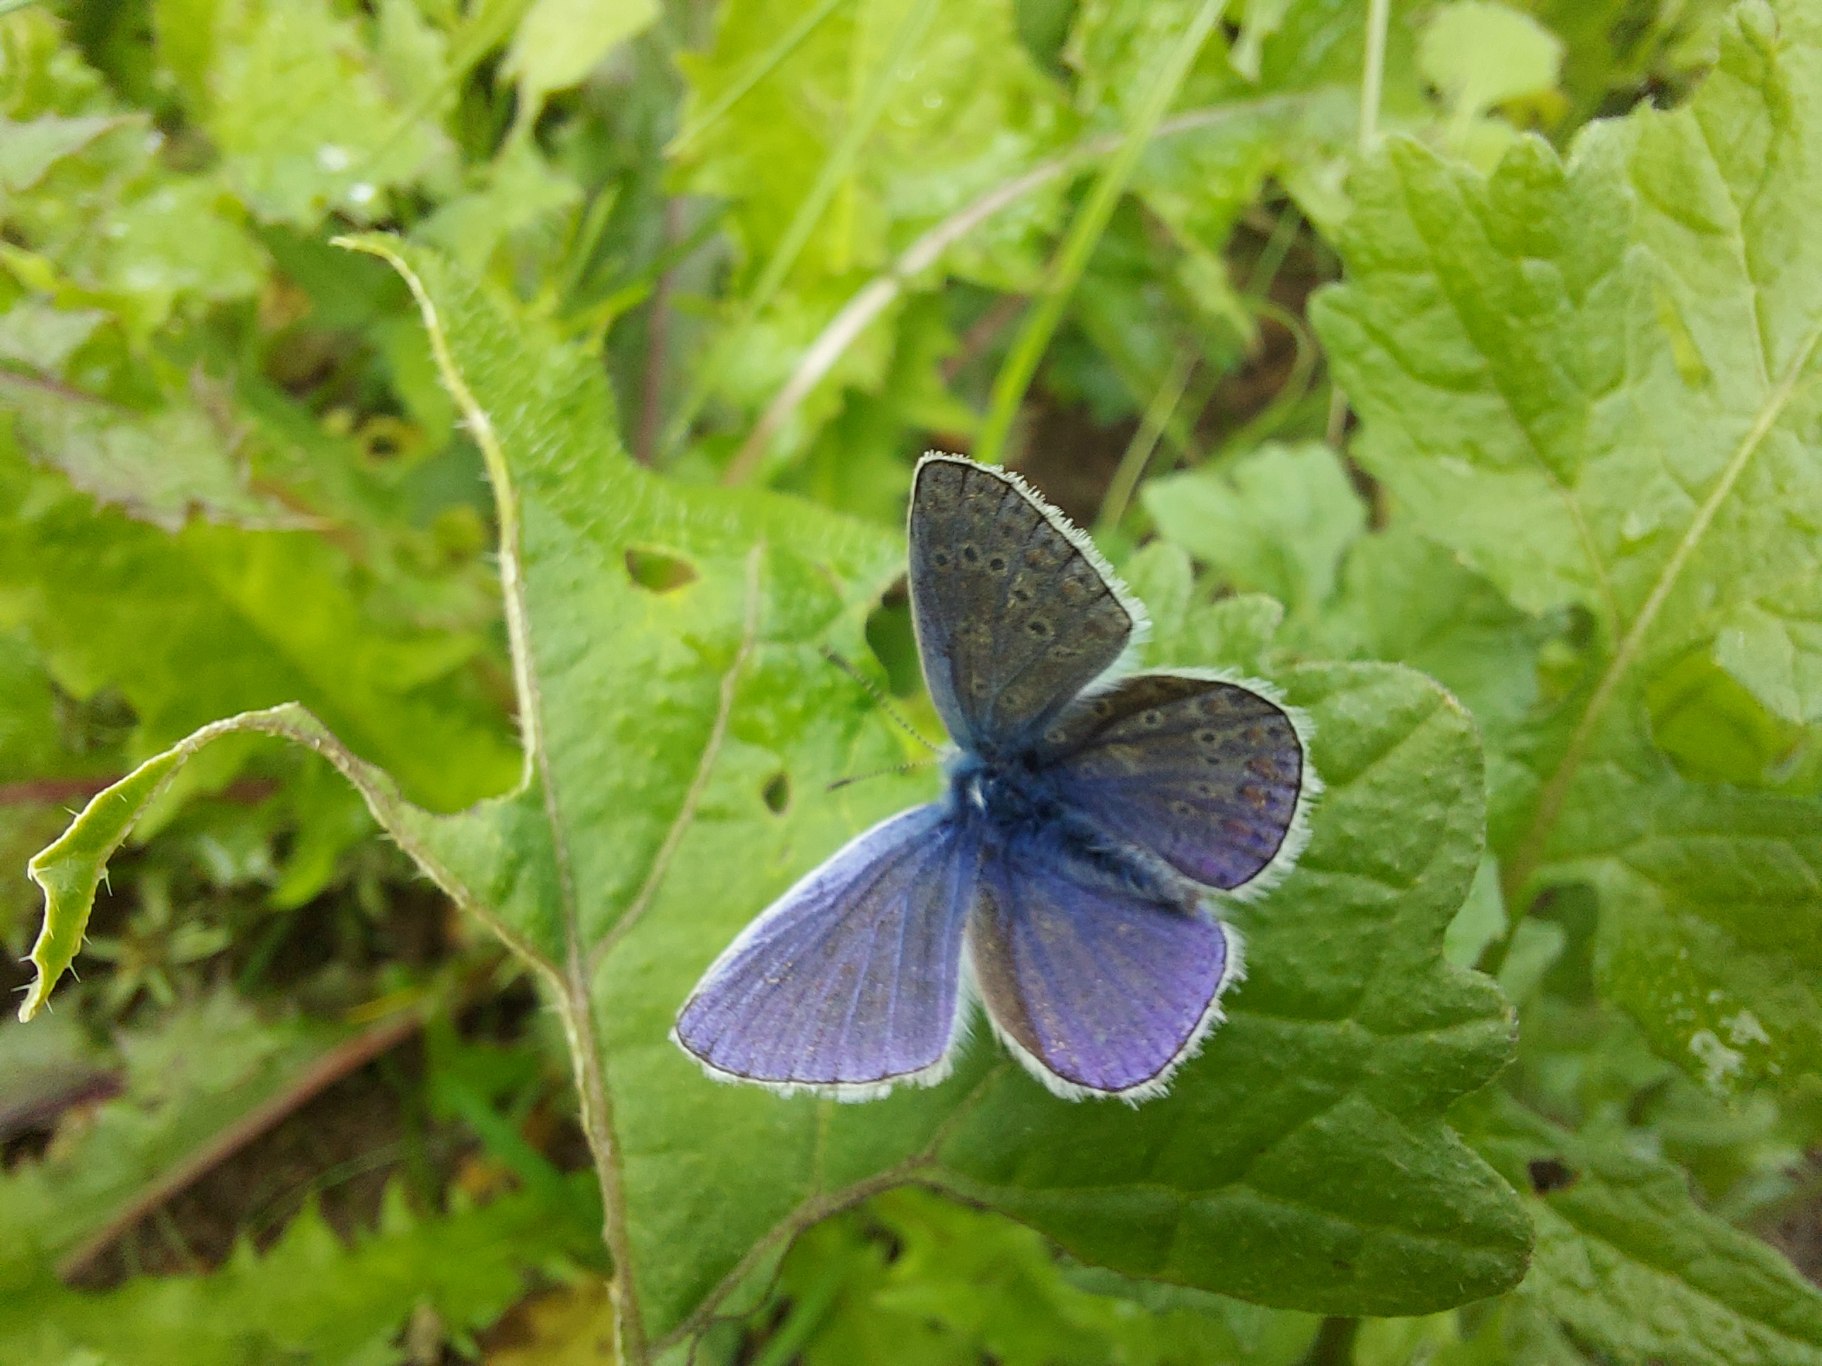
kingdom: Animalia
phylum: Arthropoda
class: Insecta
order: Lepidoptera
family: Lycaenidae
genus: Polyommatus
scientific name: Polyommatus icarus
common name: Almindelig blåfugl
